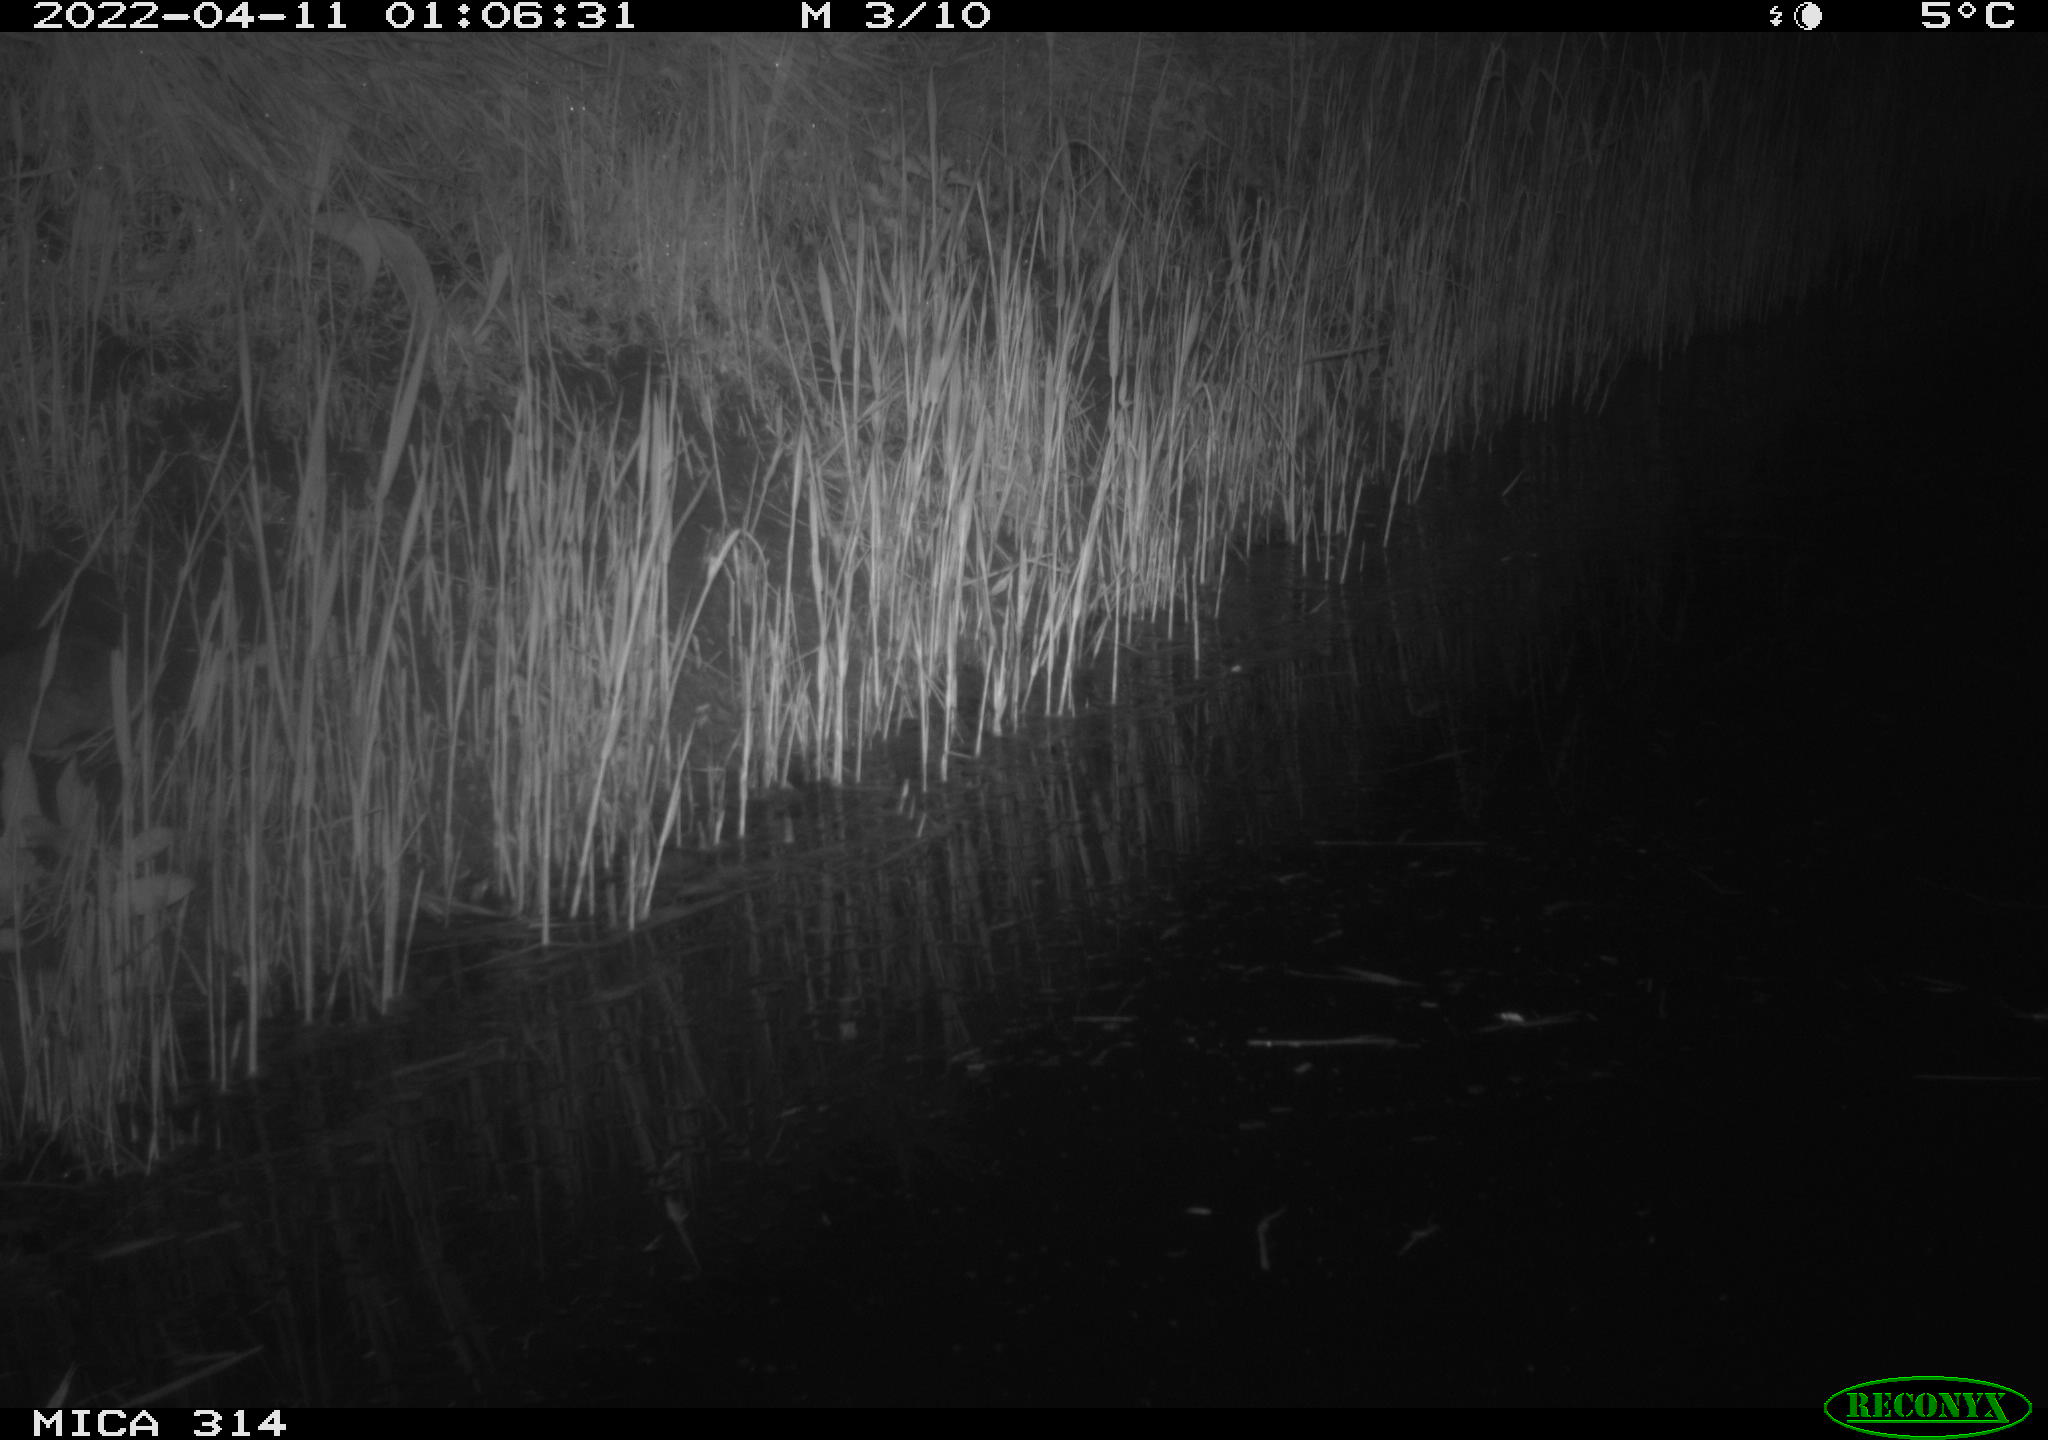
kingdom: Animalia
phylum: Chordata
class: Mammalia
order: Rodentia
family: Cricetidae
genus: Ondatra
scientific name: Ondatra zibethicus
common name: Muskrat
